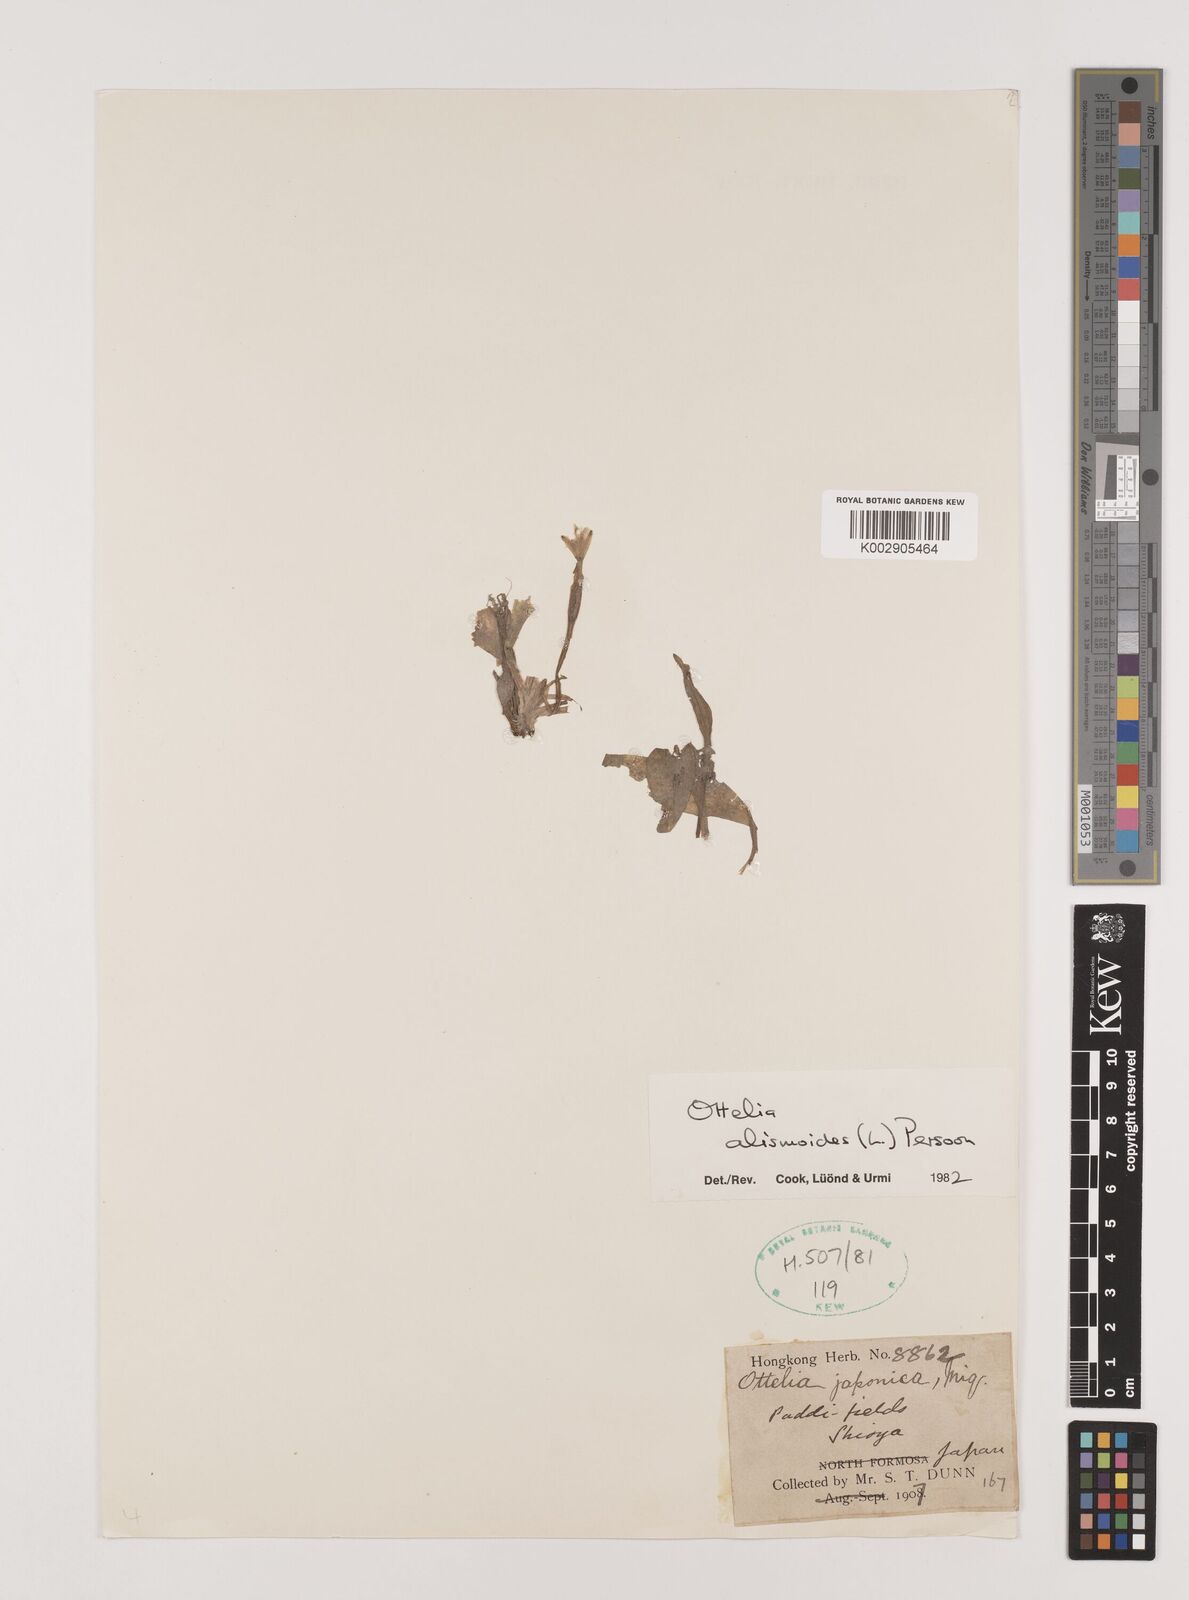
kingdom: Plantae
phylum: Tracheophyta
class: Liliopsida
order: Alismatales
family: Hydrocharitaceae
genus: Ottelia
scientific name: Ottelia alismoides
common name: Duck-lettuce
